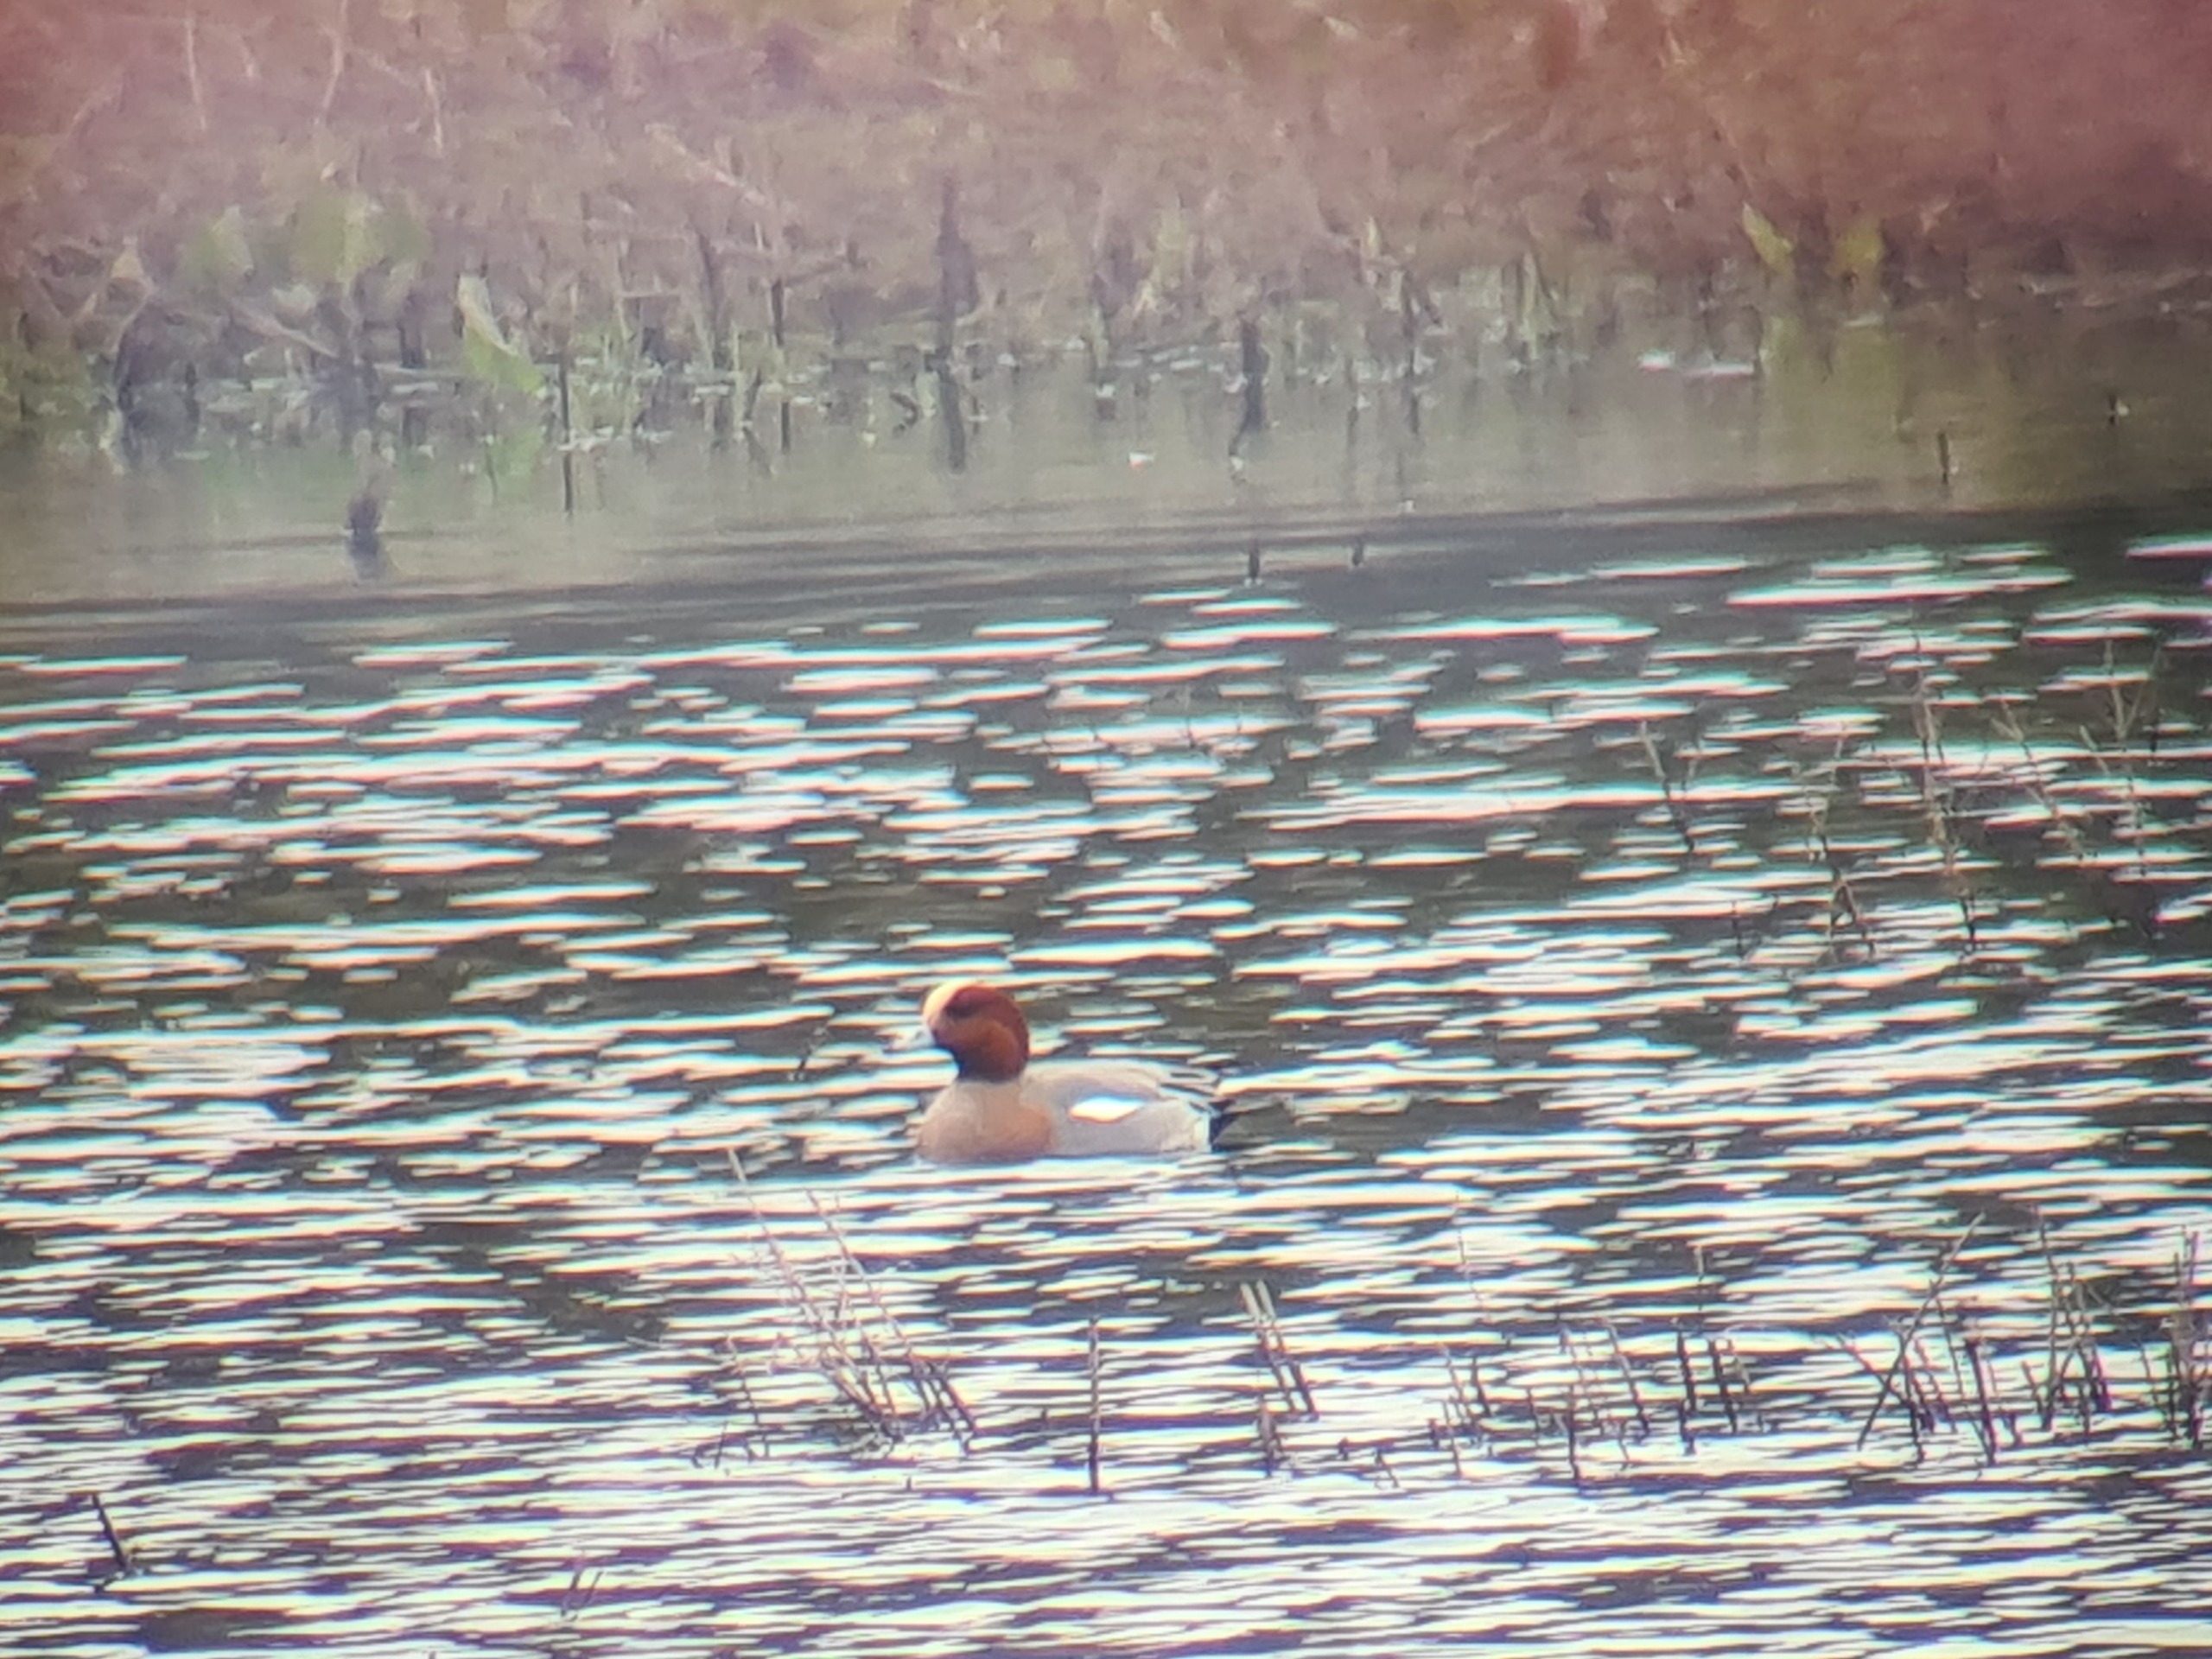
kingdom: Animalia
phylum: Chordata
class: Aves
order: Anseriformes
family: Anatidae
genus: Mareca
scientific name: Mareca penelope
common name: Pibeand
